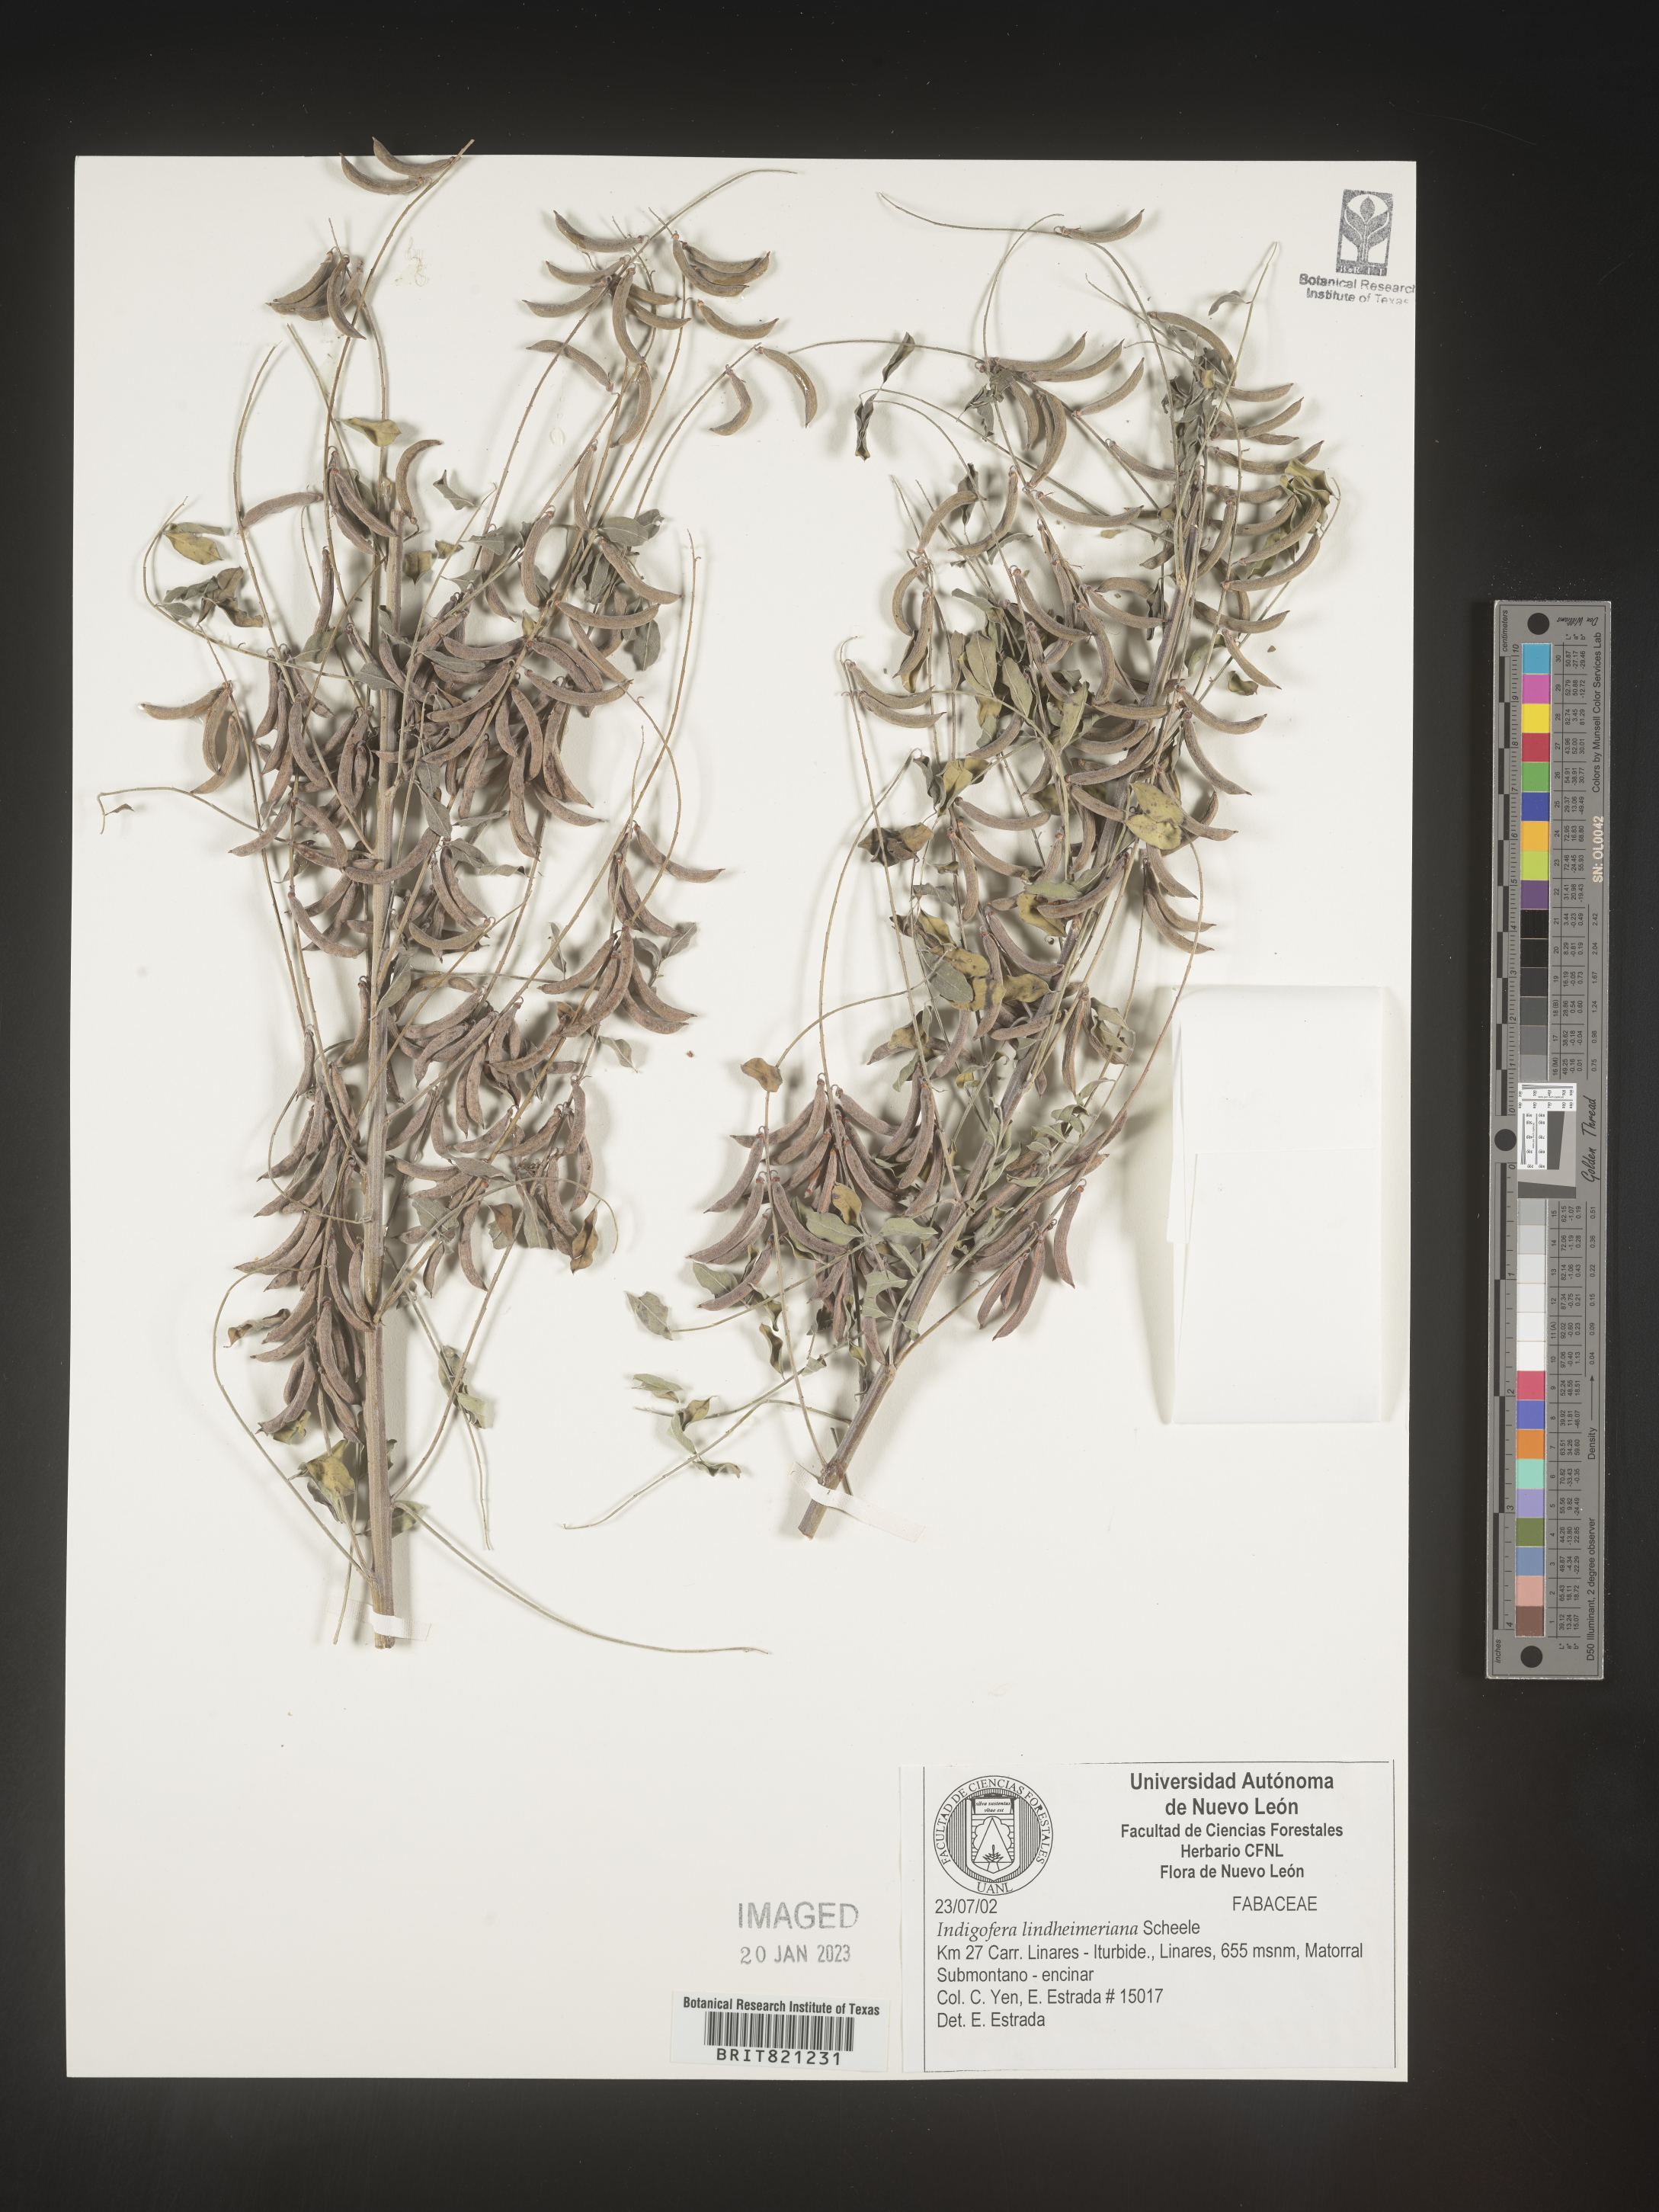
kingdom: Plantae
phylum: Tracheophyta
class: Magnoliopsida
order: Fabales
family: Fabaceae
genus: Indigofera
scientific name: Indigofera
